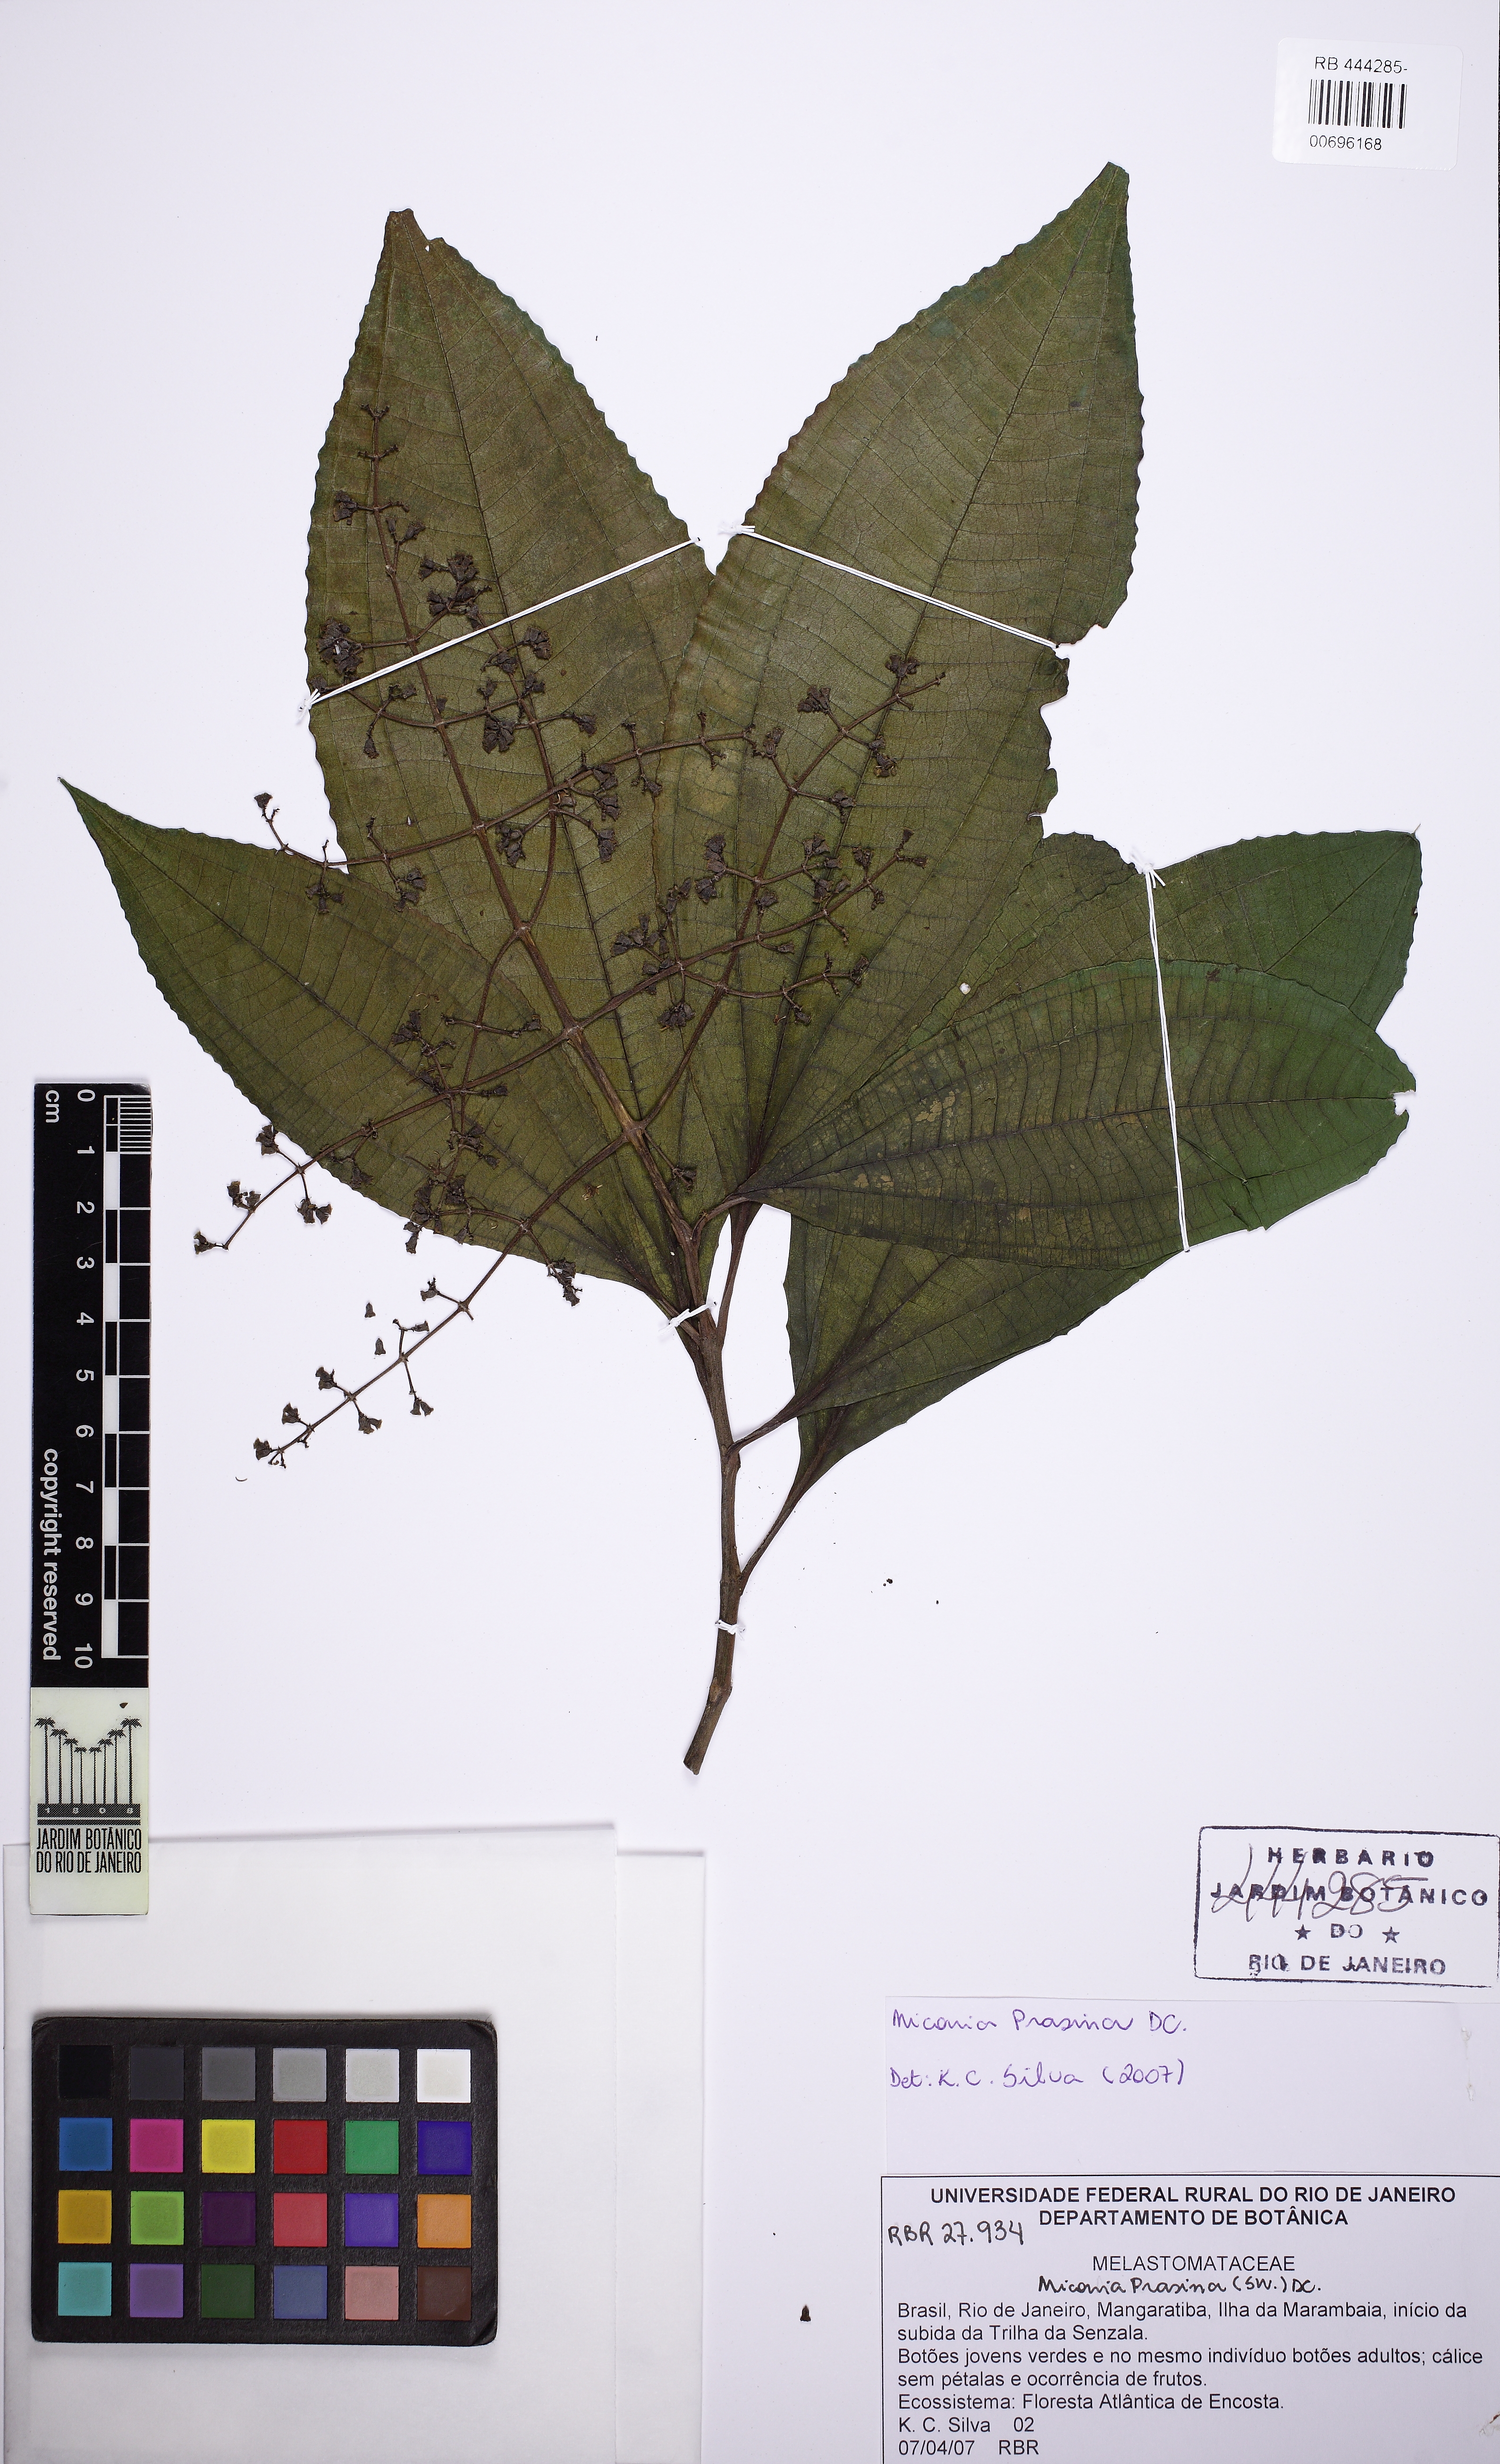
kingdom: Plantae
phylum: Tracheophyta
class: Magnoliopsida
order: Myrtales
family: Melastomataceae
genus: Miconia
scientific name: Miconia prasina
